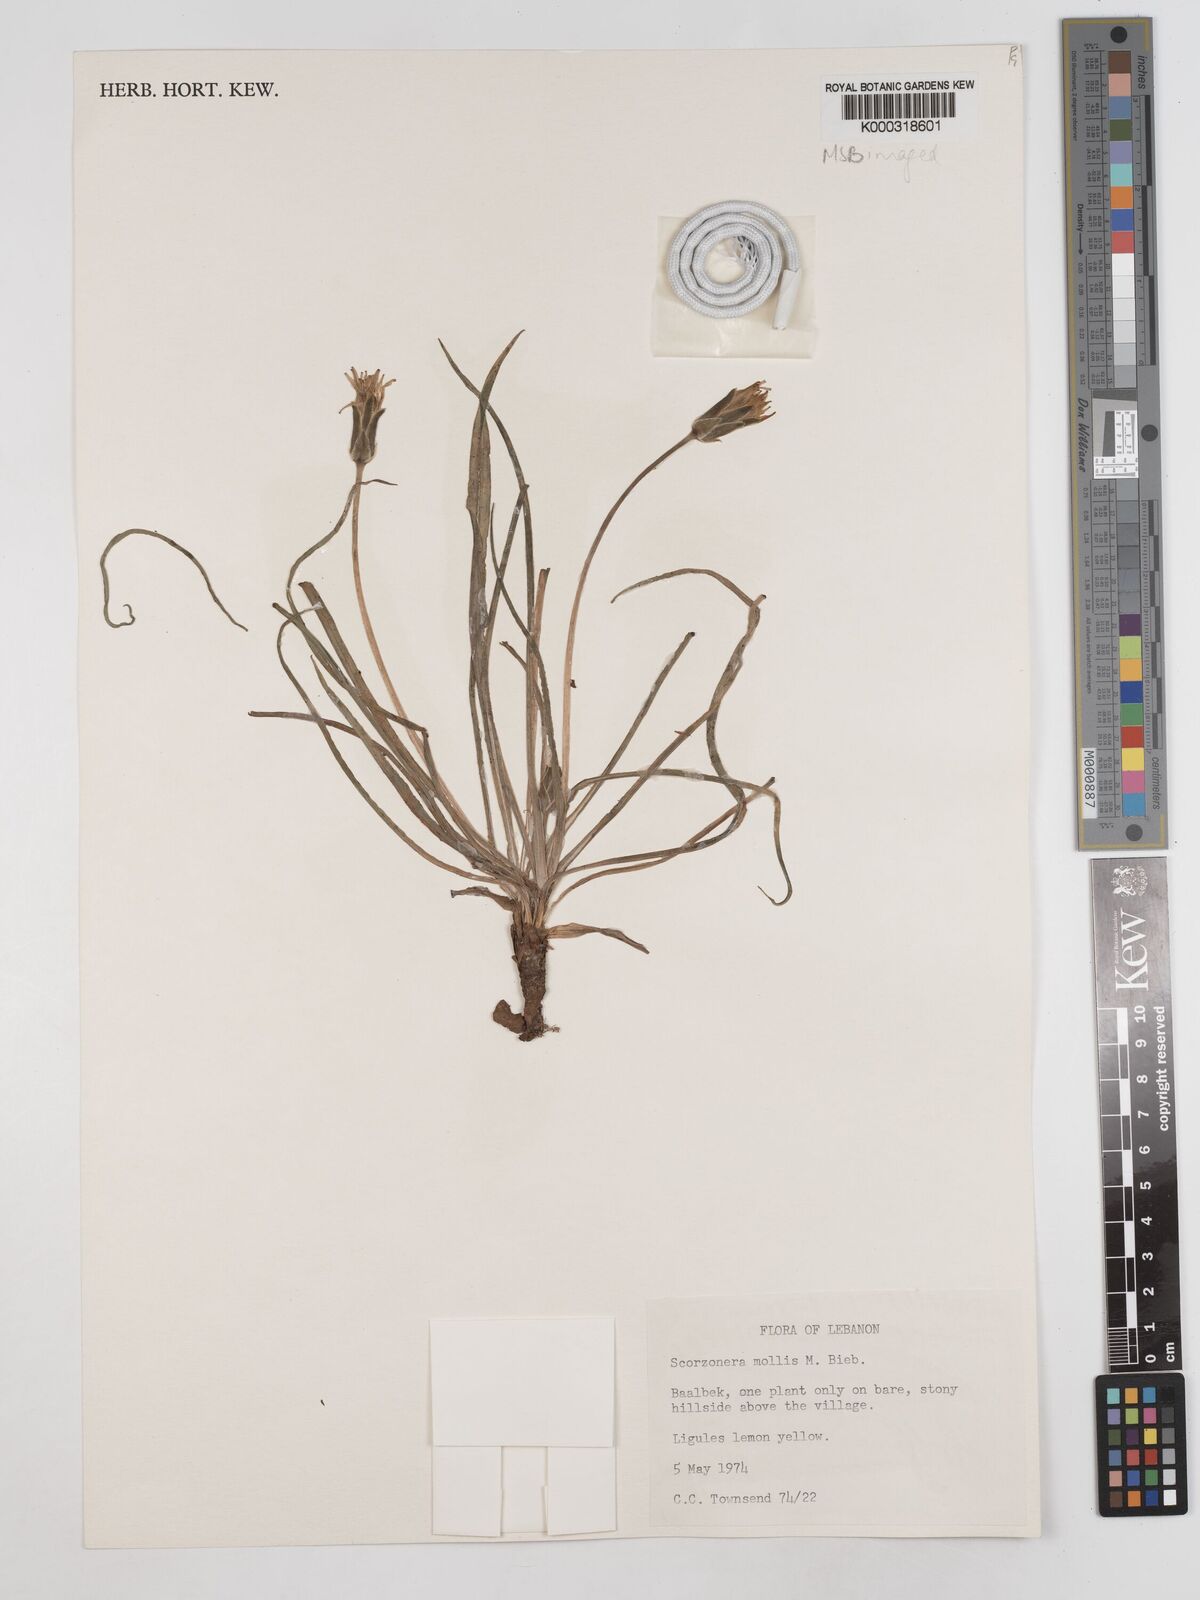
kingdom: Plantae
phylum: Tracheophyta
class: Magnoliopsida
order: Asterales
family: Asteraceae
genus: Candollea
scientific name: Candollea mollis
